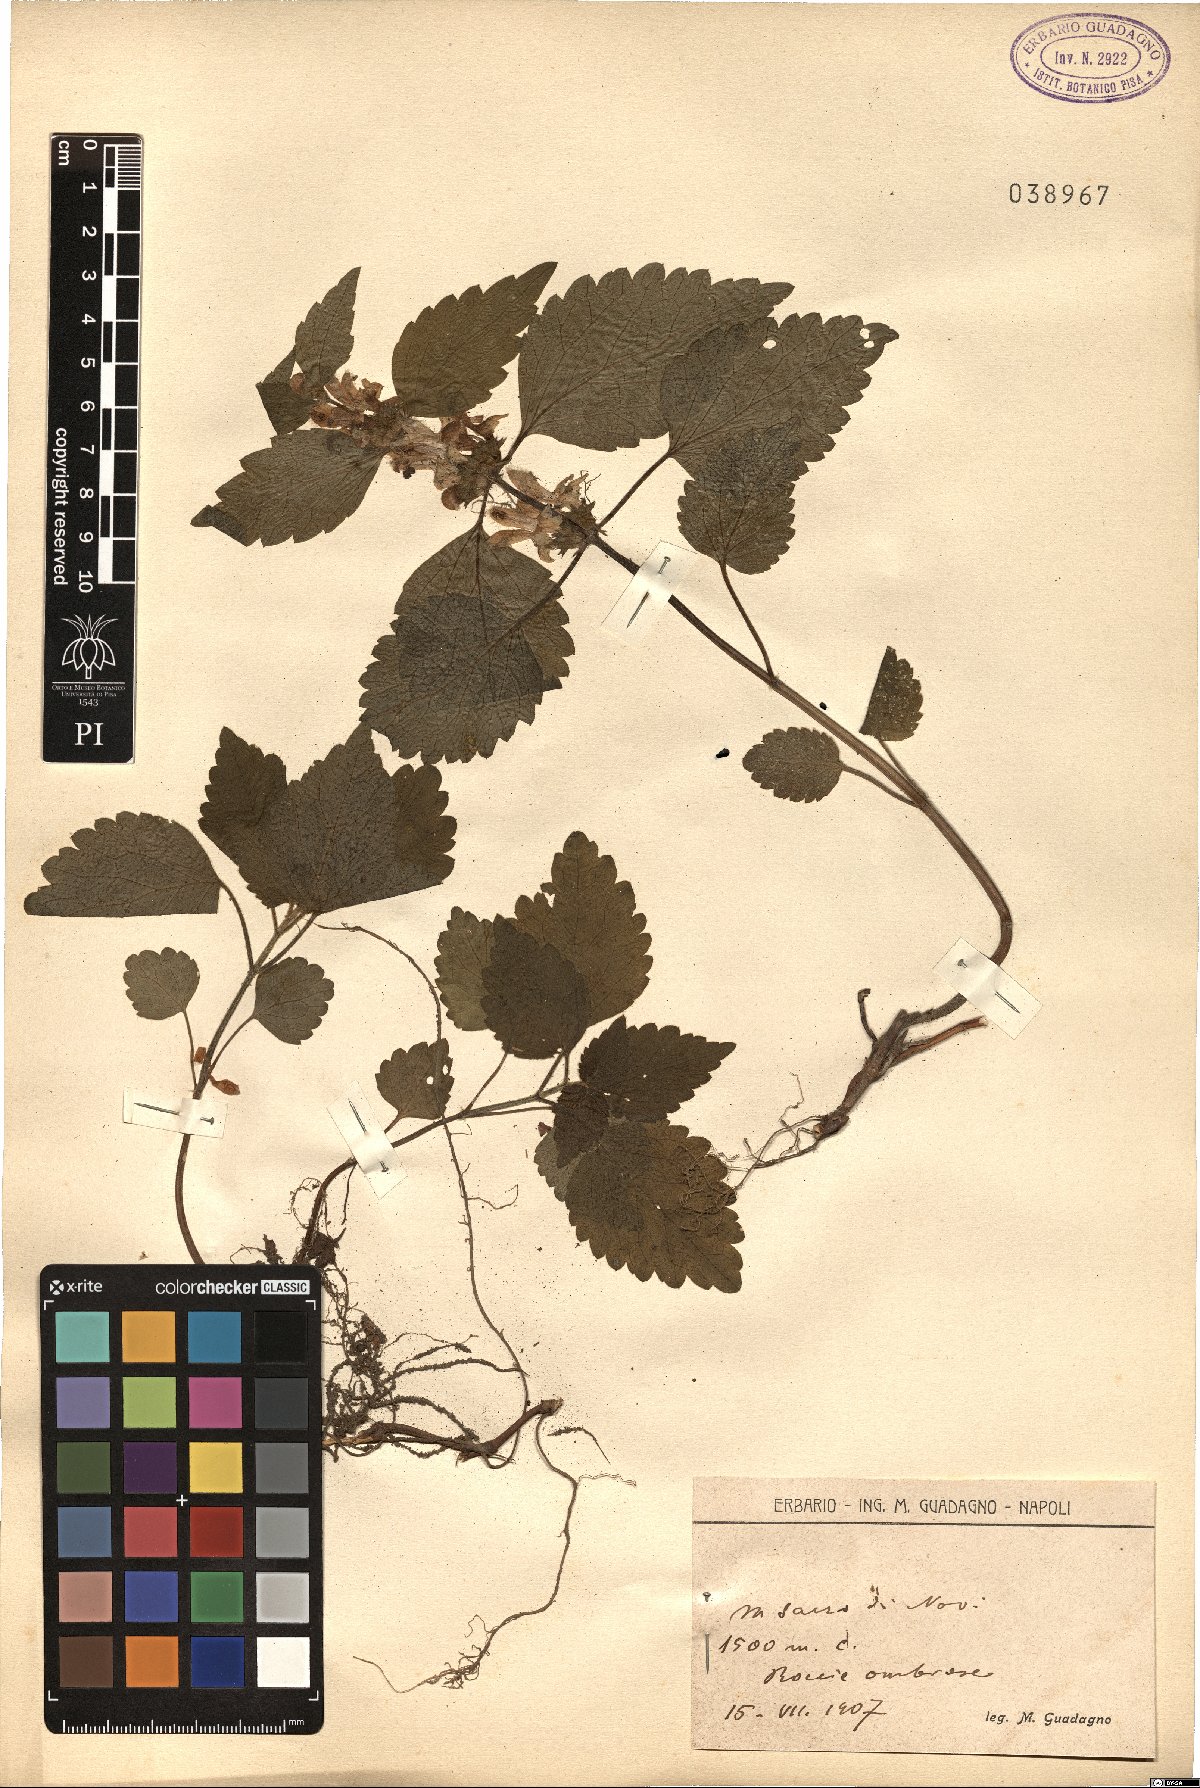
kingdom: Plantae
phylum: Tracheophyta
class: Magnoliopsida
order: Lamiales
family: Lamiaceae
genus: Lamium
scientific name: Lamium
